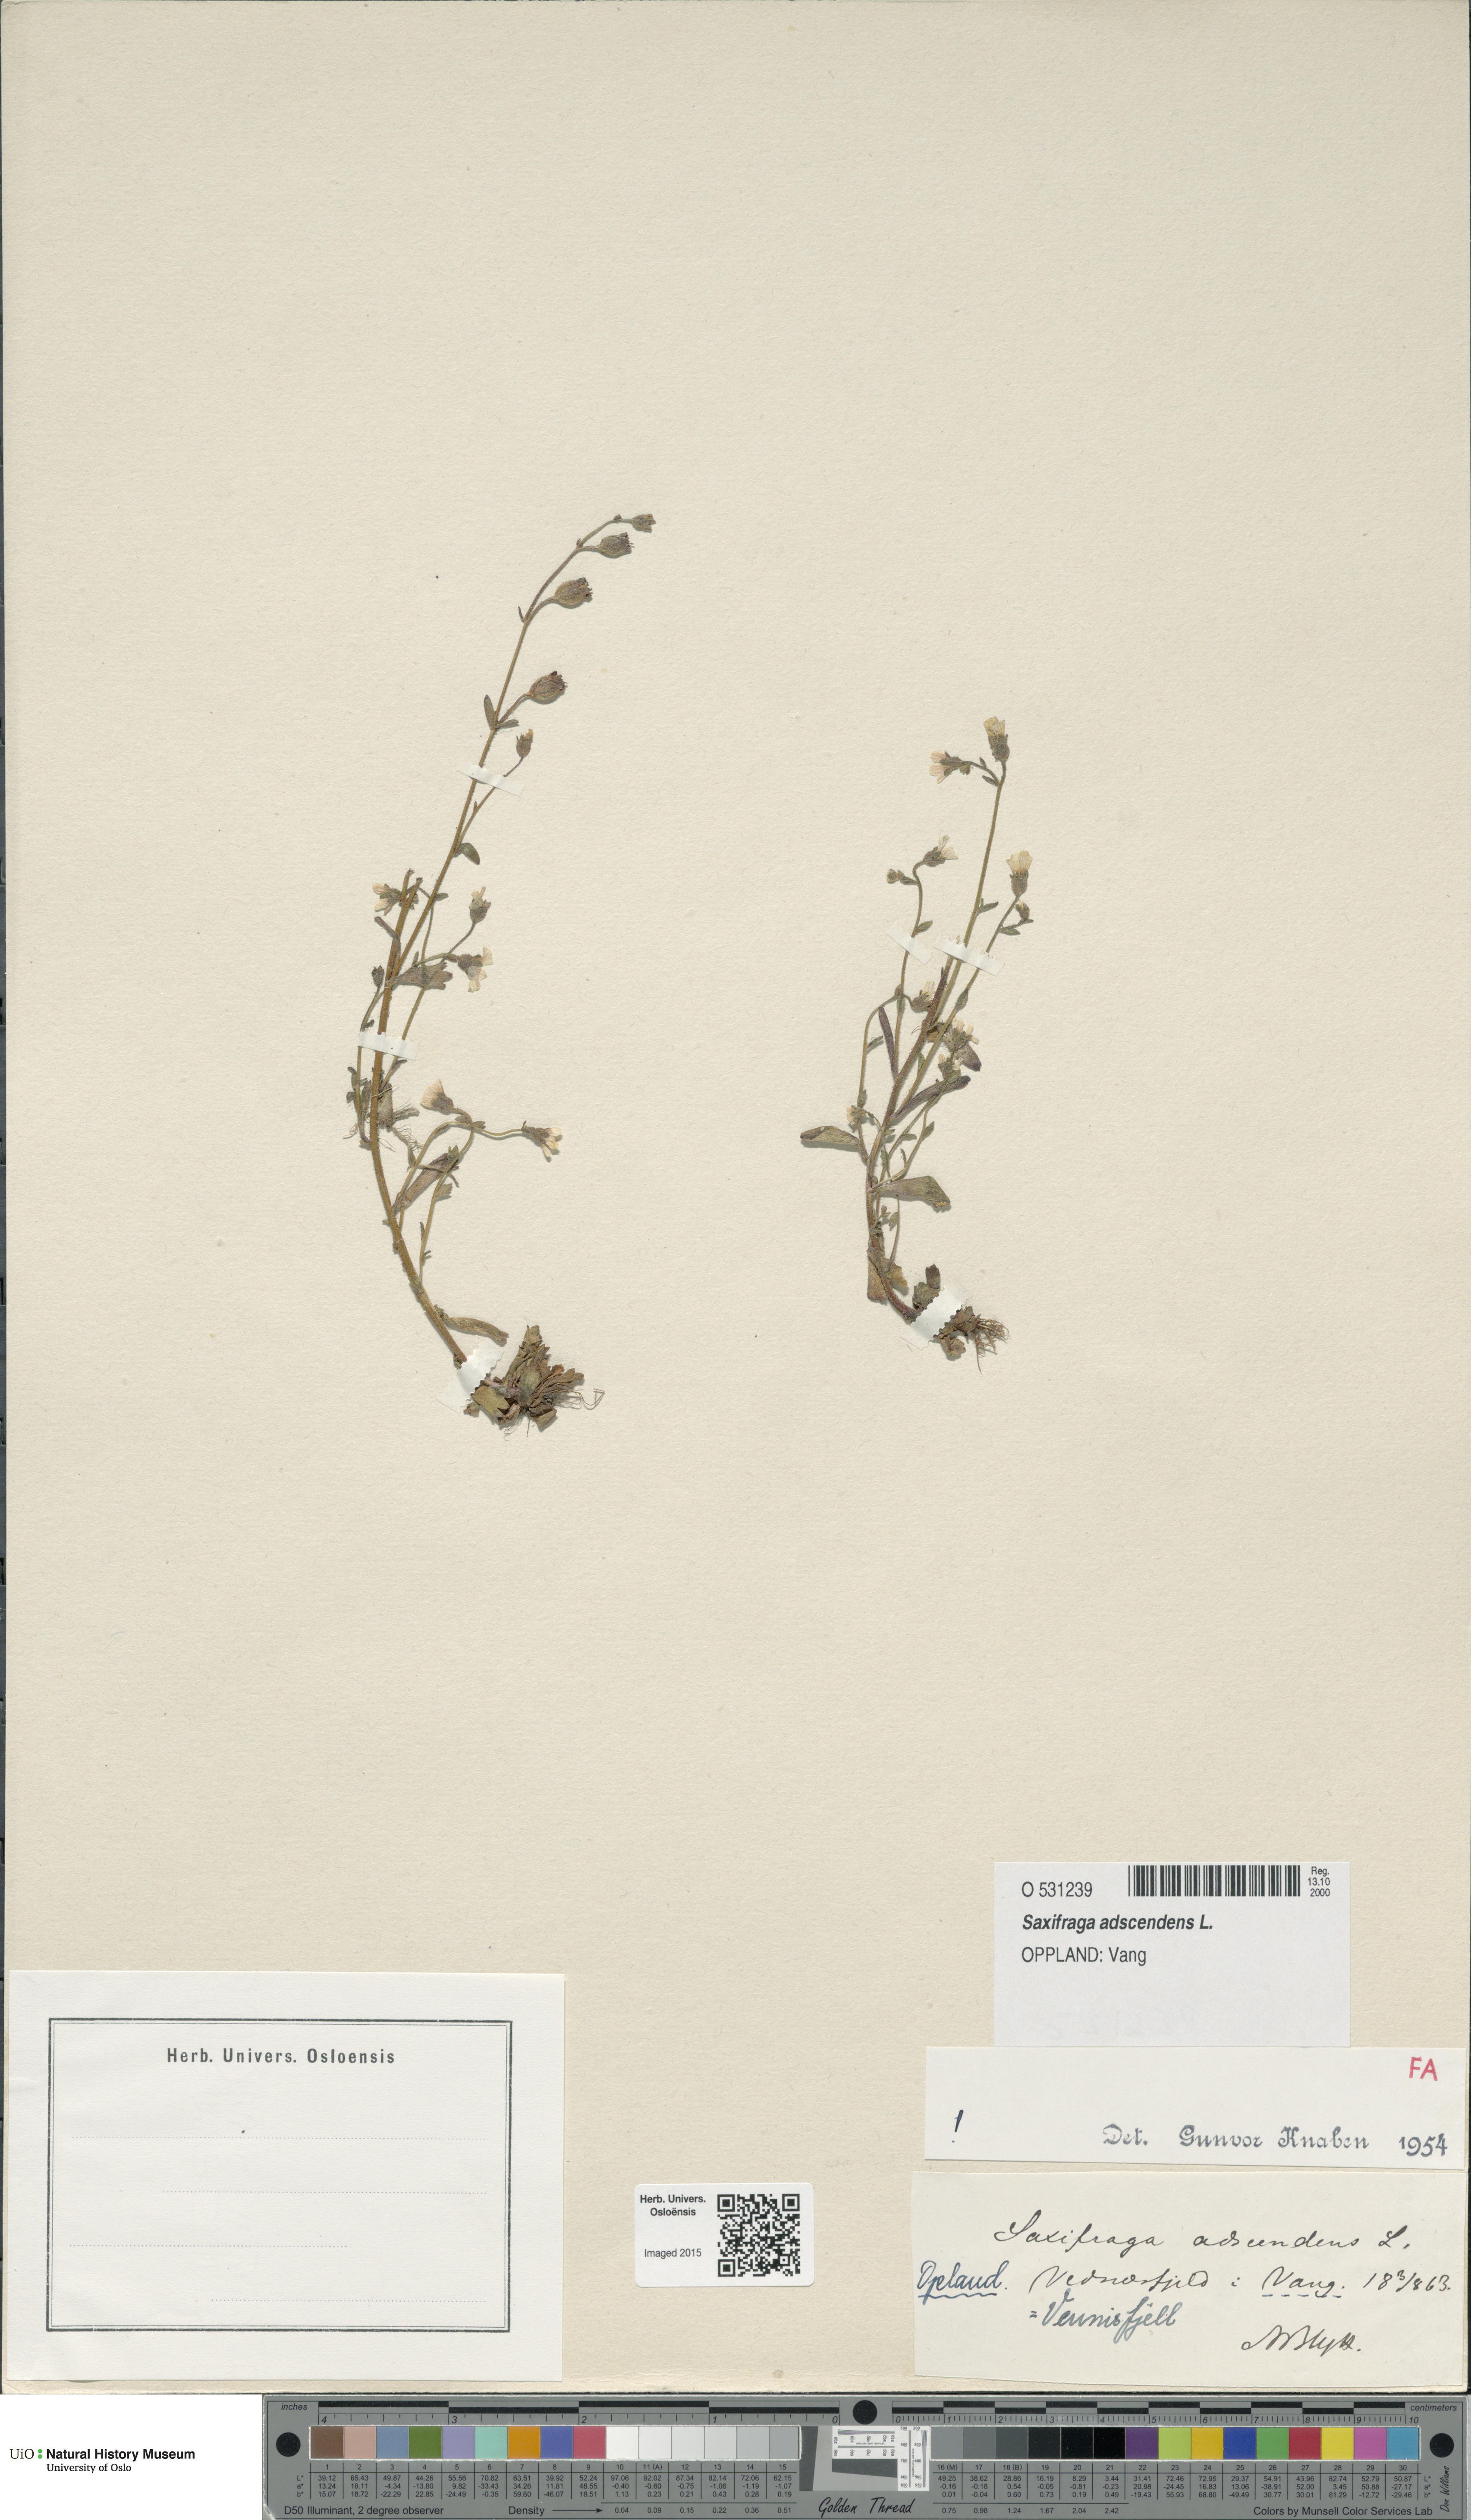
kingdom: Plantae
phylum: Tracheophyta
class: Magnoliopsida
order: Saxifragales
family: Saxifragaceae
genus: Saxifraga
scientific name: Saxifraga adscendens
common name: Ascending saxifrage
